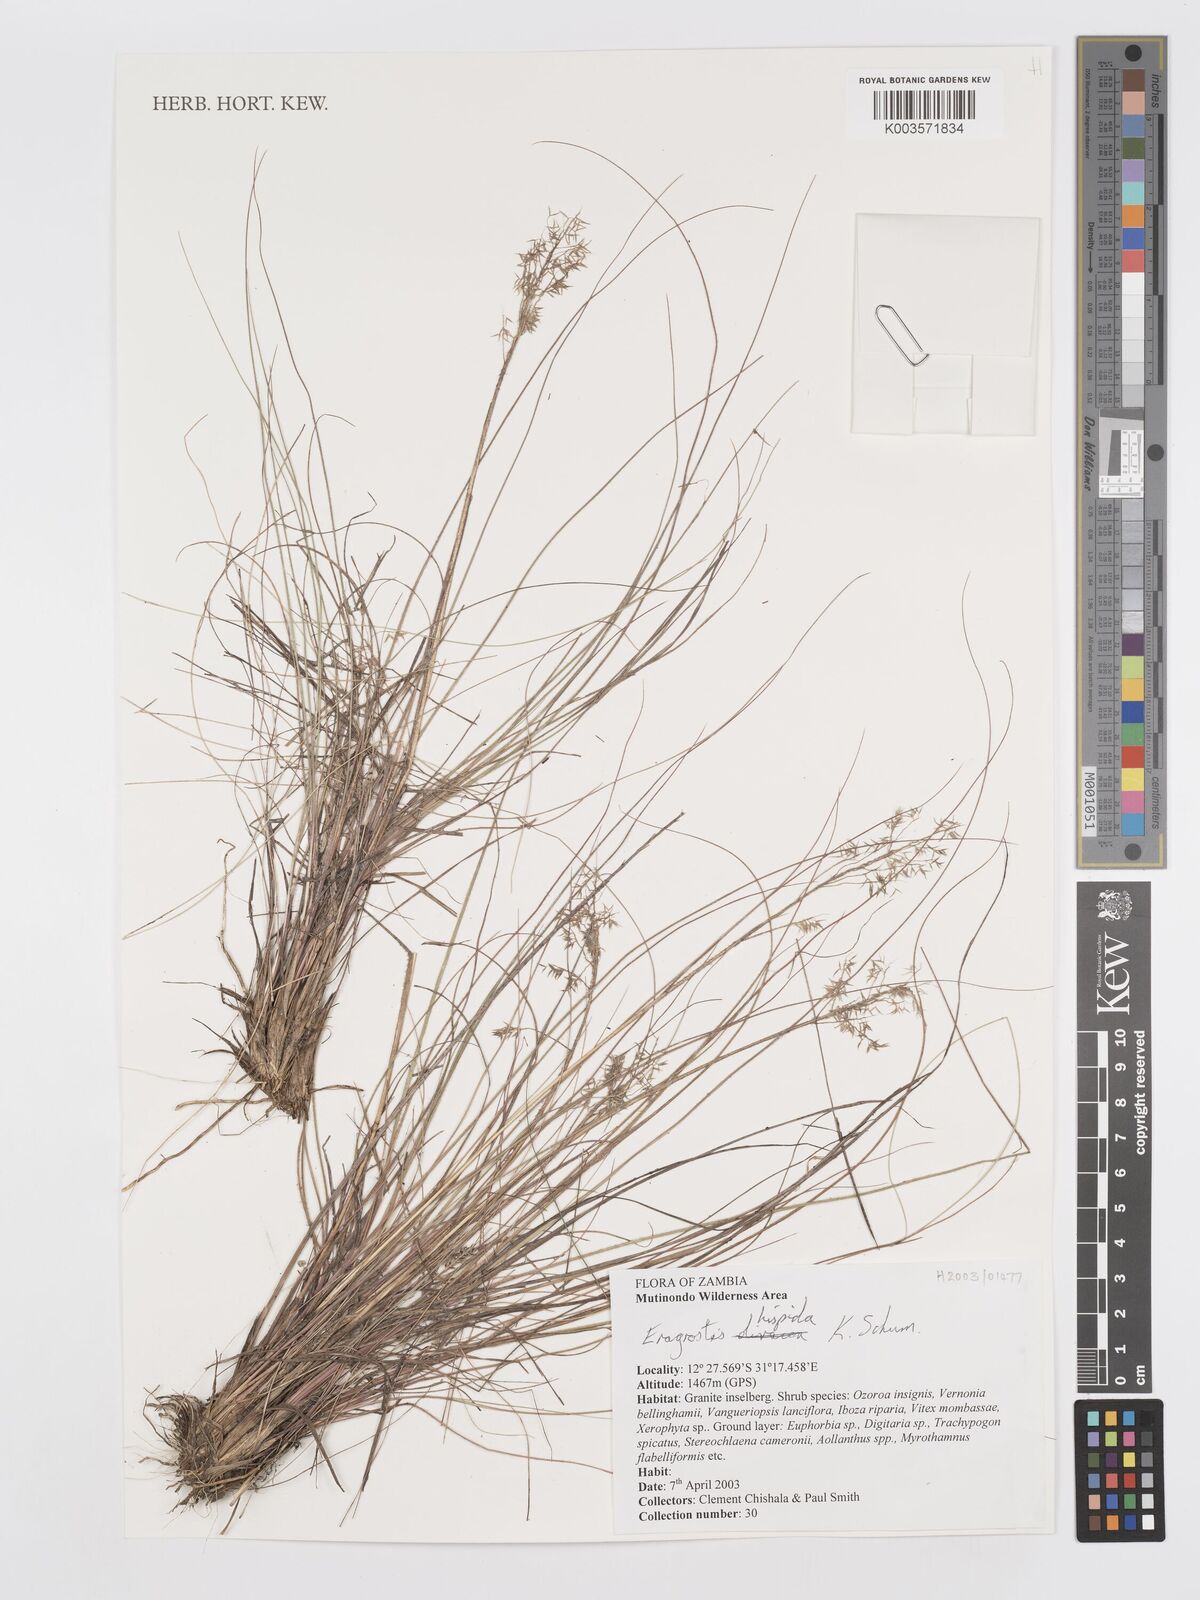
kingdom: Plantae
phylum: Tracheophyta
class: Liliopsida
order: Poales
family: Poaceae
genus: Eragrostis
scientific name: Eragrostis hispida
